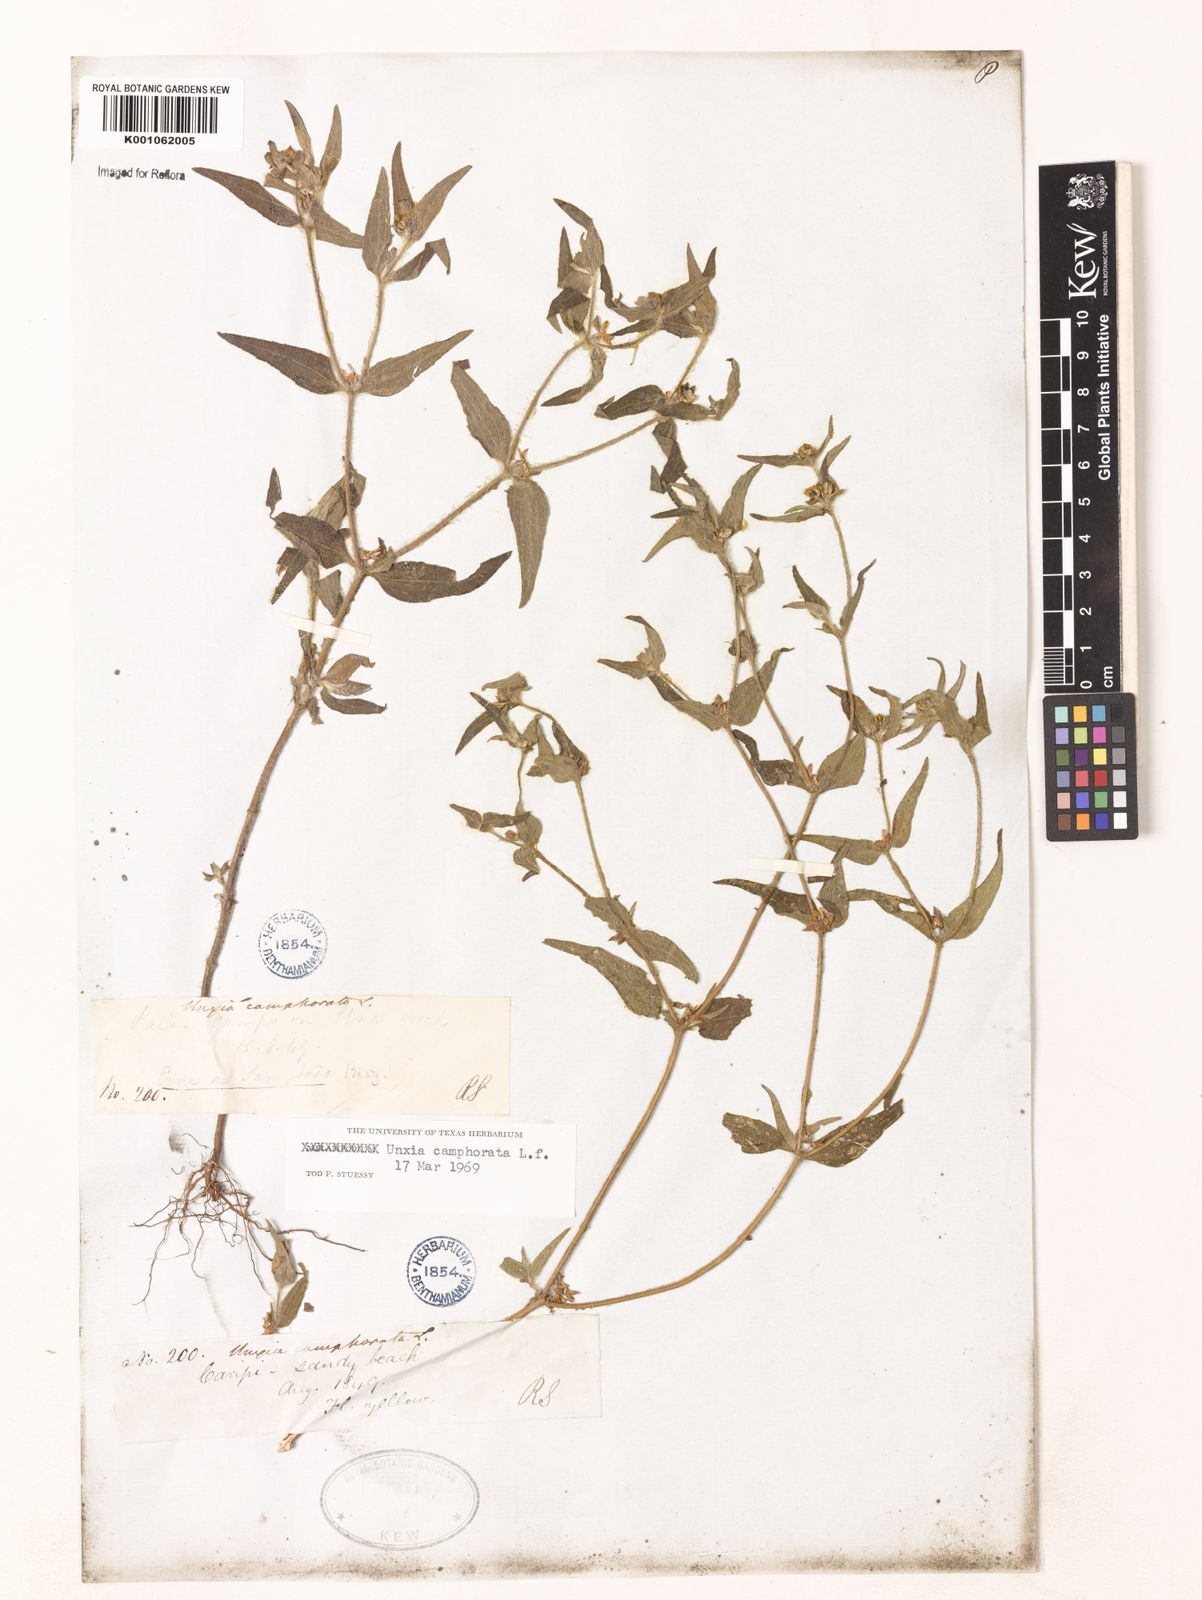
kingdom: Plantae
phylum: Tracheophyta
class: Magnoliopsida
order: Asterales
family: Asteraceae
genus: Unxia
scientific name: Unxia camphorata
